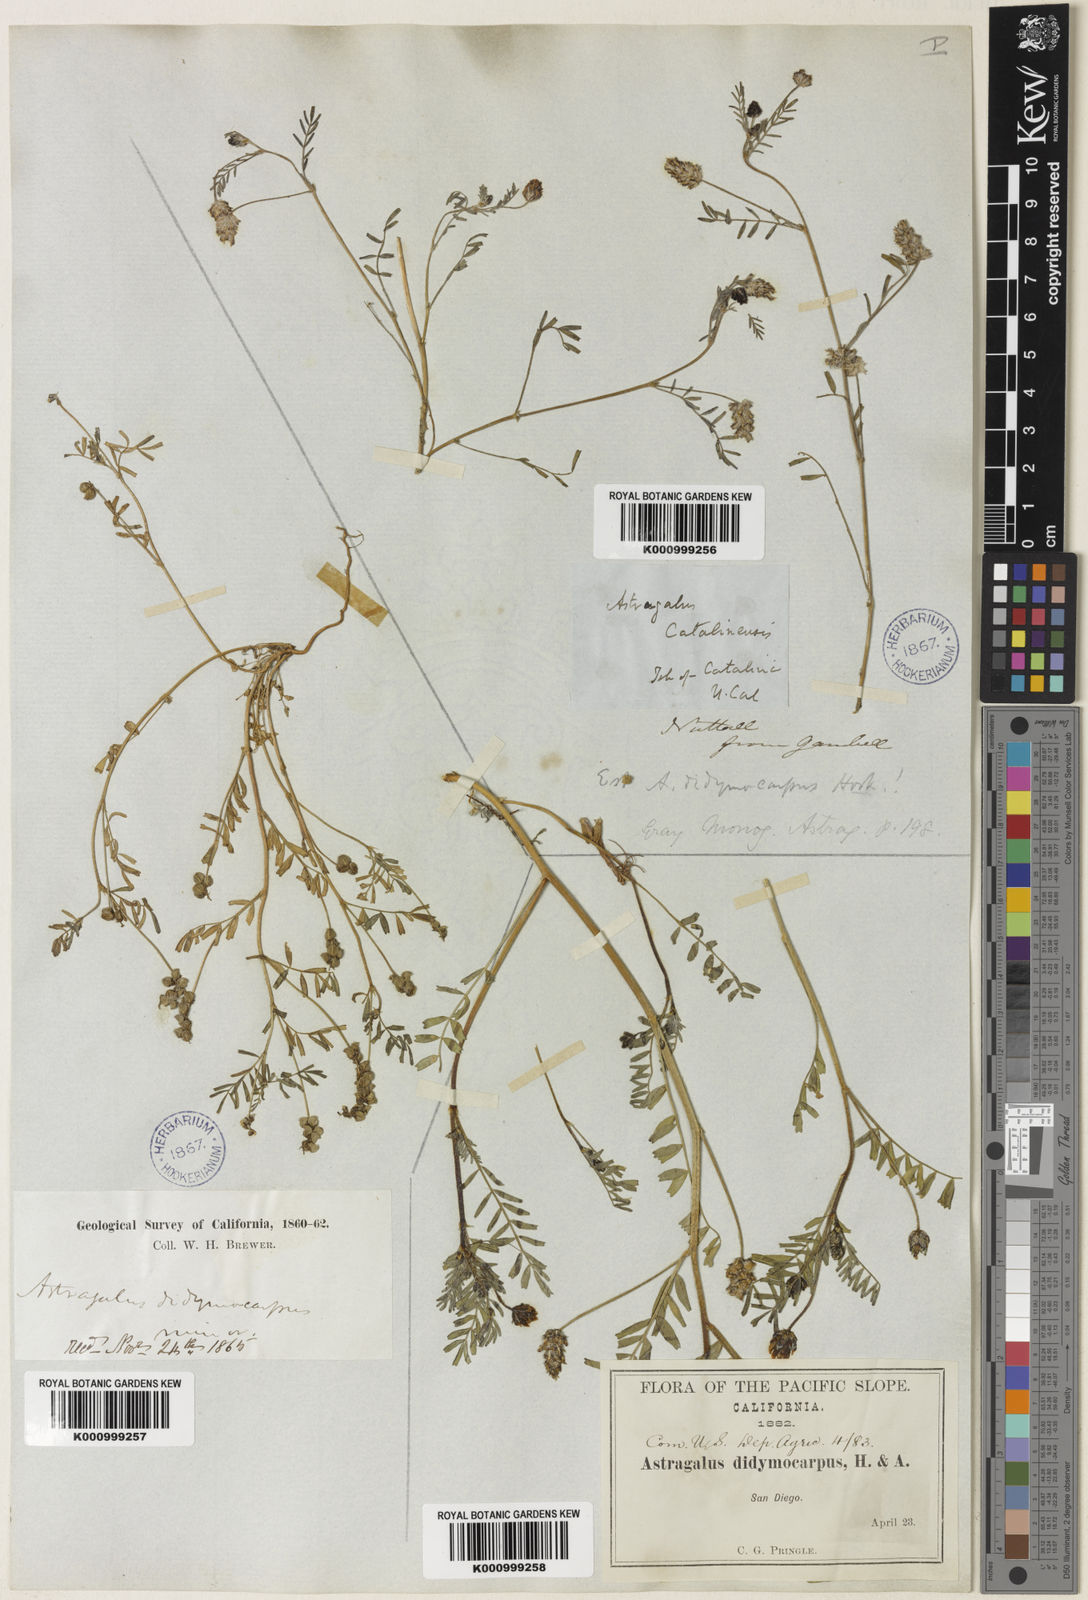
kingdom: Plantae
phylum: Tracheophyta
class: Magnoliopsida
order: Fabales
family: Fabaceae
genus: Astragalus
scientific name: Astragalus didymocarpus
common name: Dwarf white milkvetch
